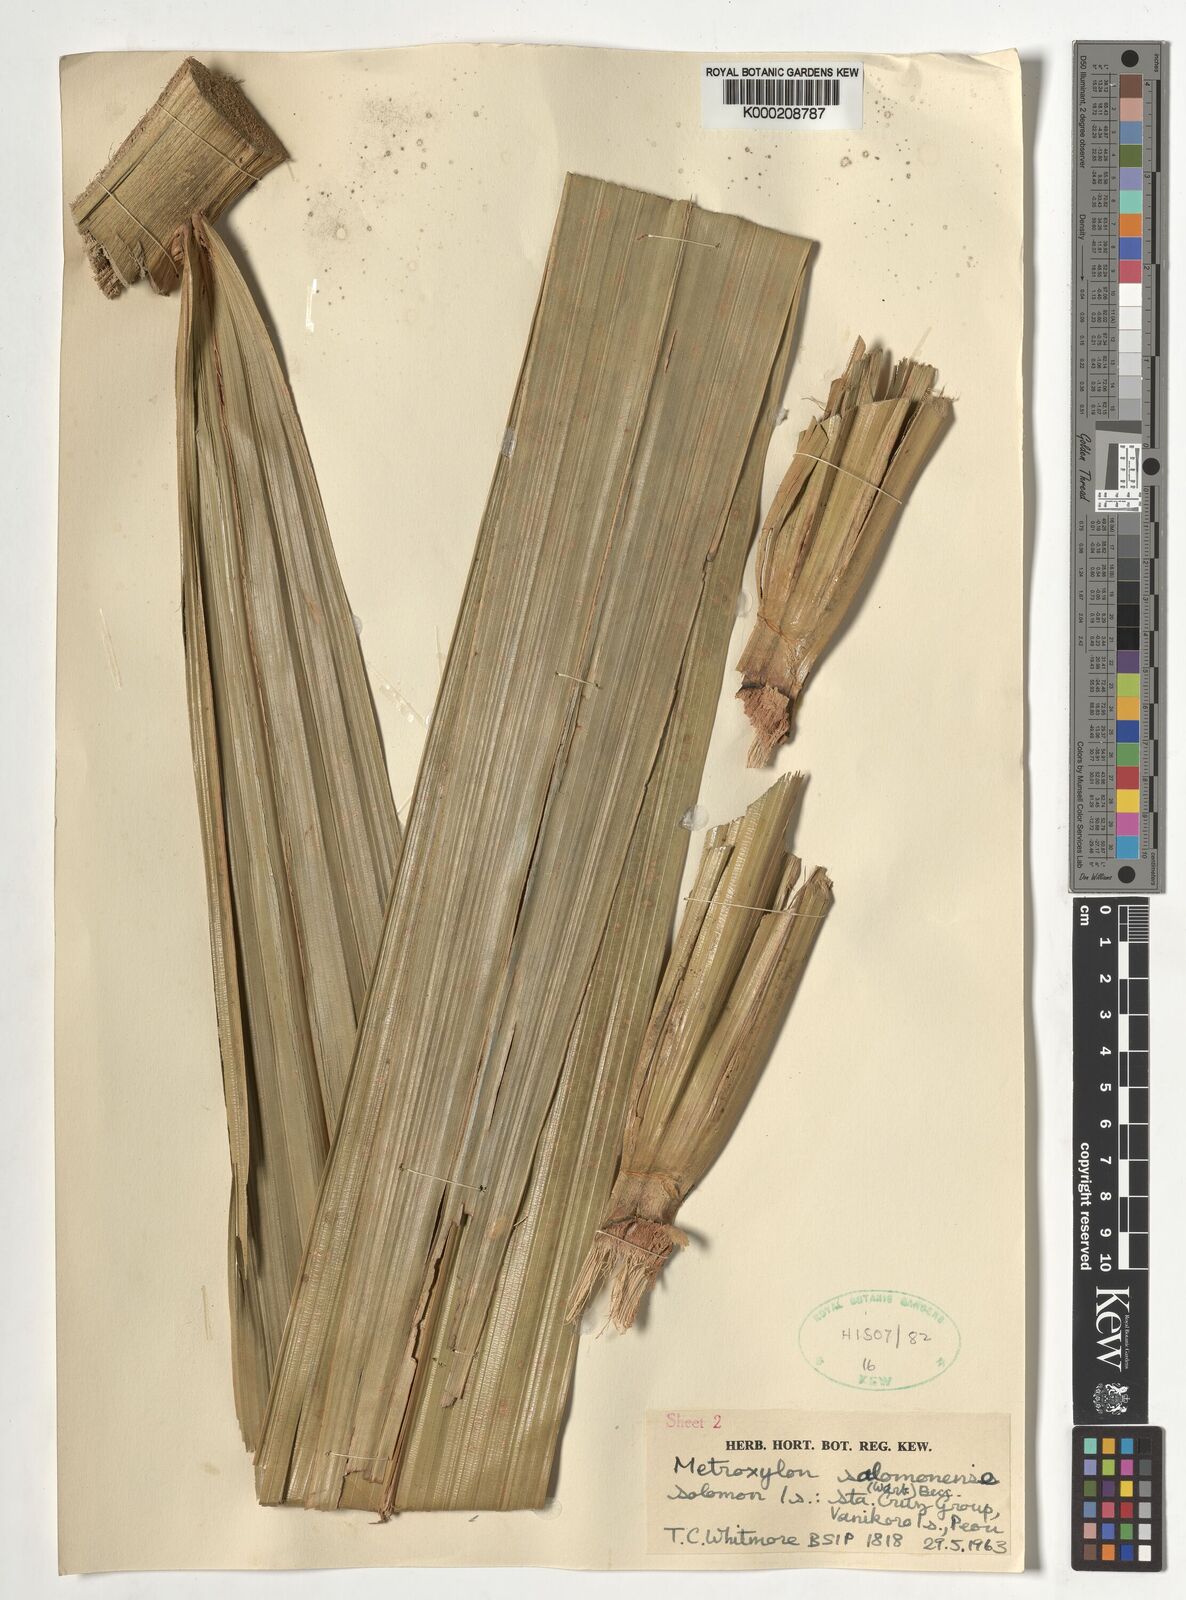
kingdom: Plantae
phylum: Tracheophyta
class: Liliopsida
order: Arecales
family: Arecaceae
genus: Metroxylon
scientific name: Metroxylon salomonense
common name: Solomon's sago palm
